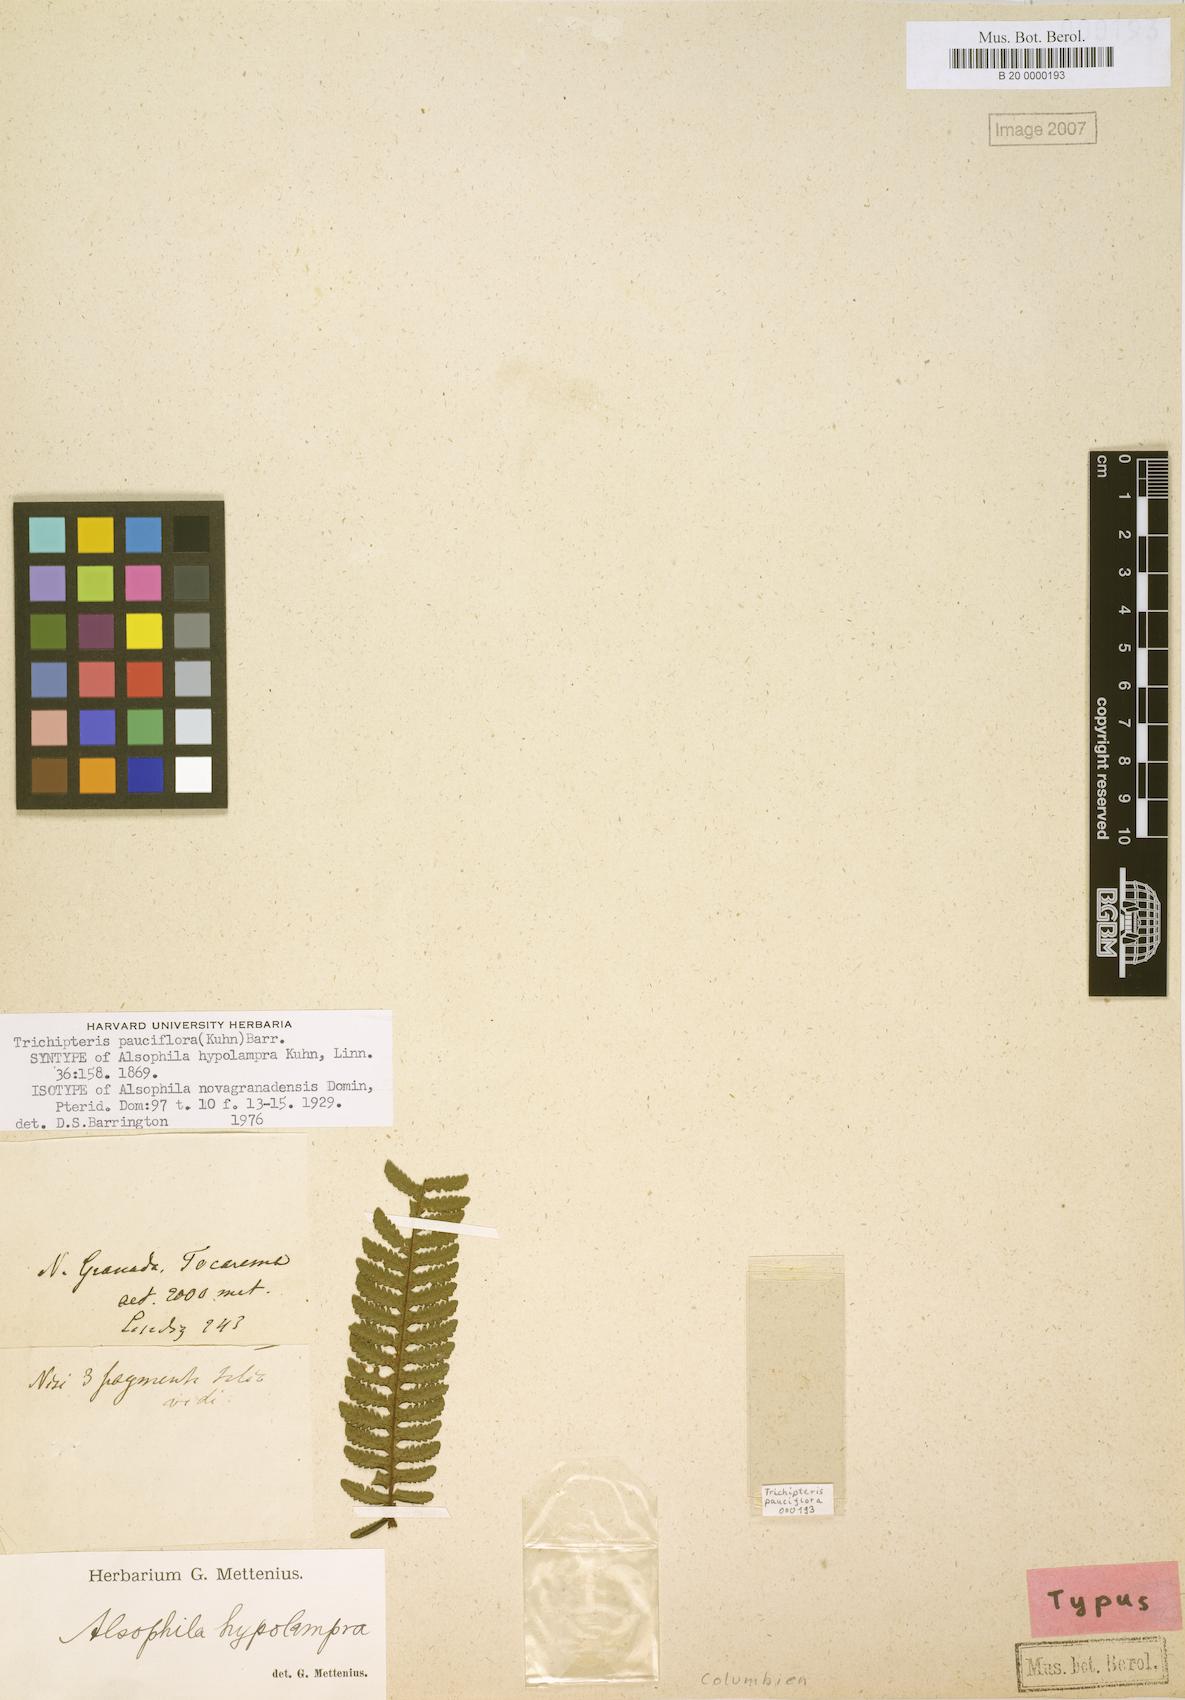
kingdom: Plantae
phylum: Tracheophyta
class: Polypodiopsida
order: Cyatheales
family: Cyatheaceae
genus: Cyathea
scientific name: Cyathea pauciflora
